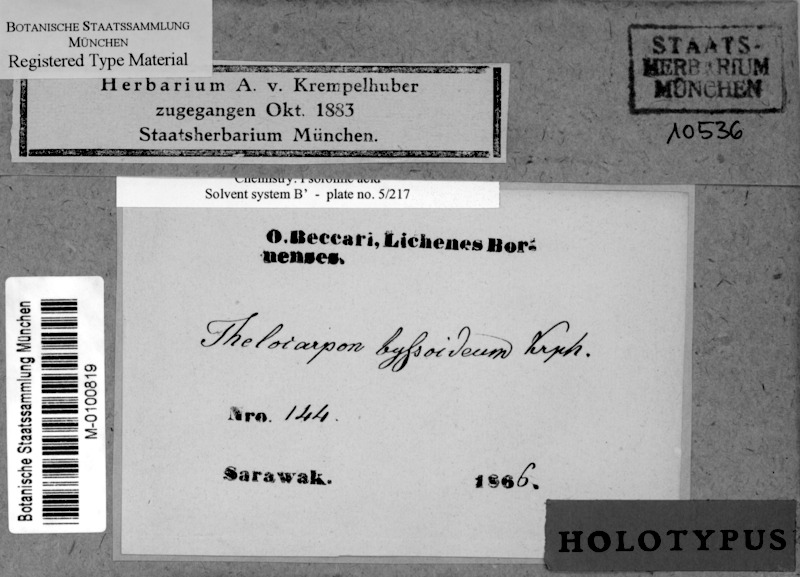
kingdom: Fungi
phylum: Ascomycota
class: Lecanoromycetes
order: Ostropales
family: Graphidaceae
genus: Thelotrema
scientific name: Thelotrema byssoideum
